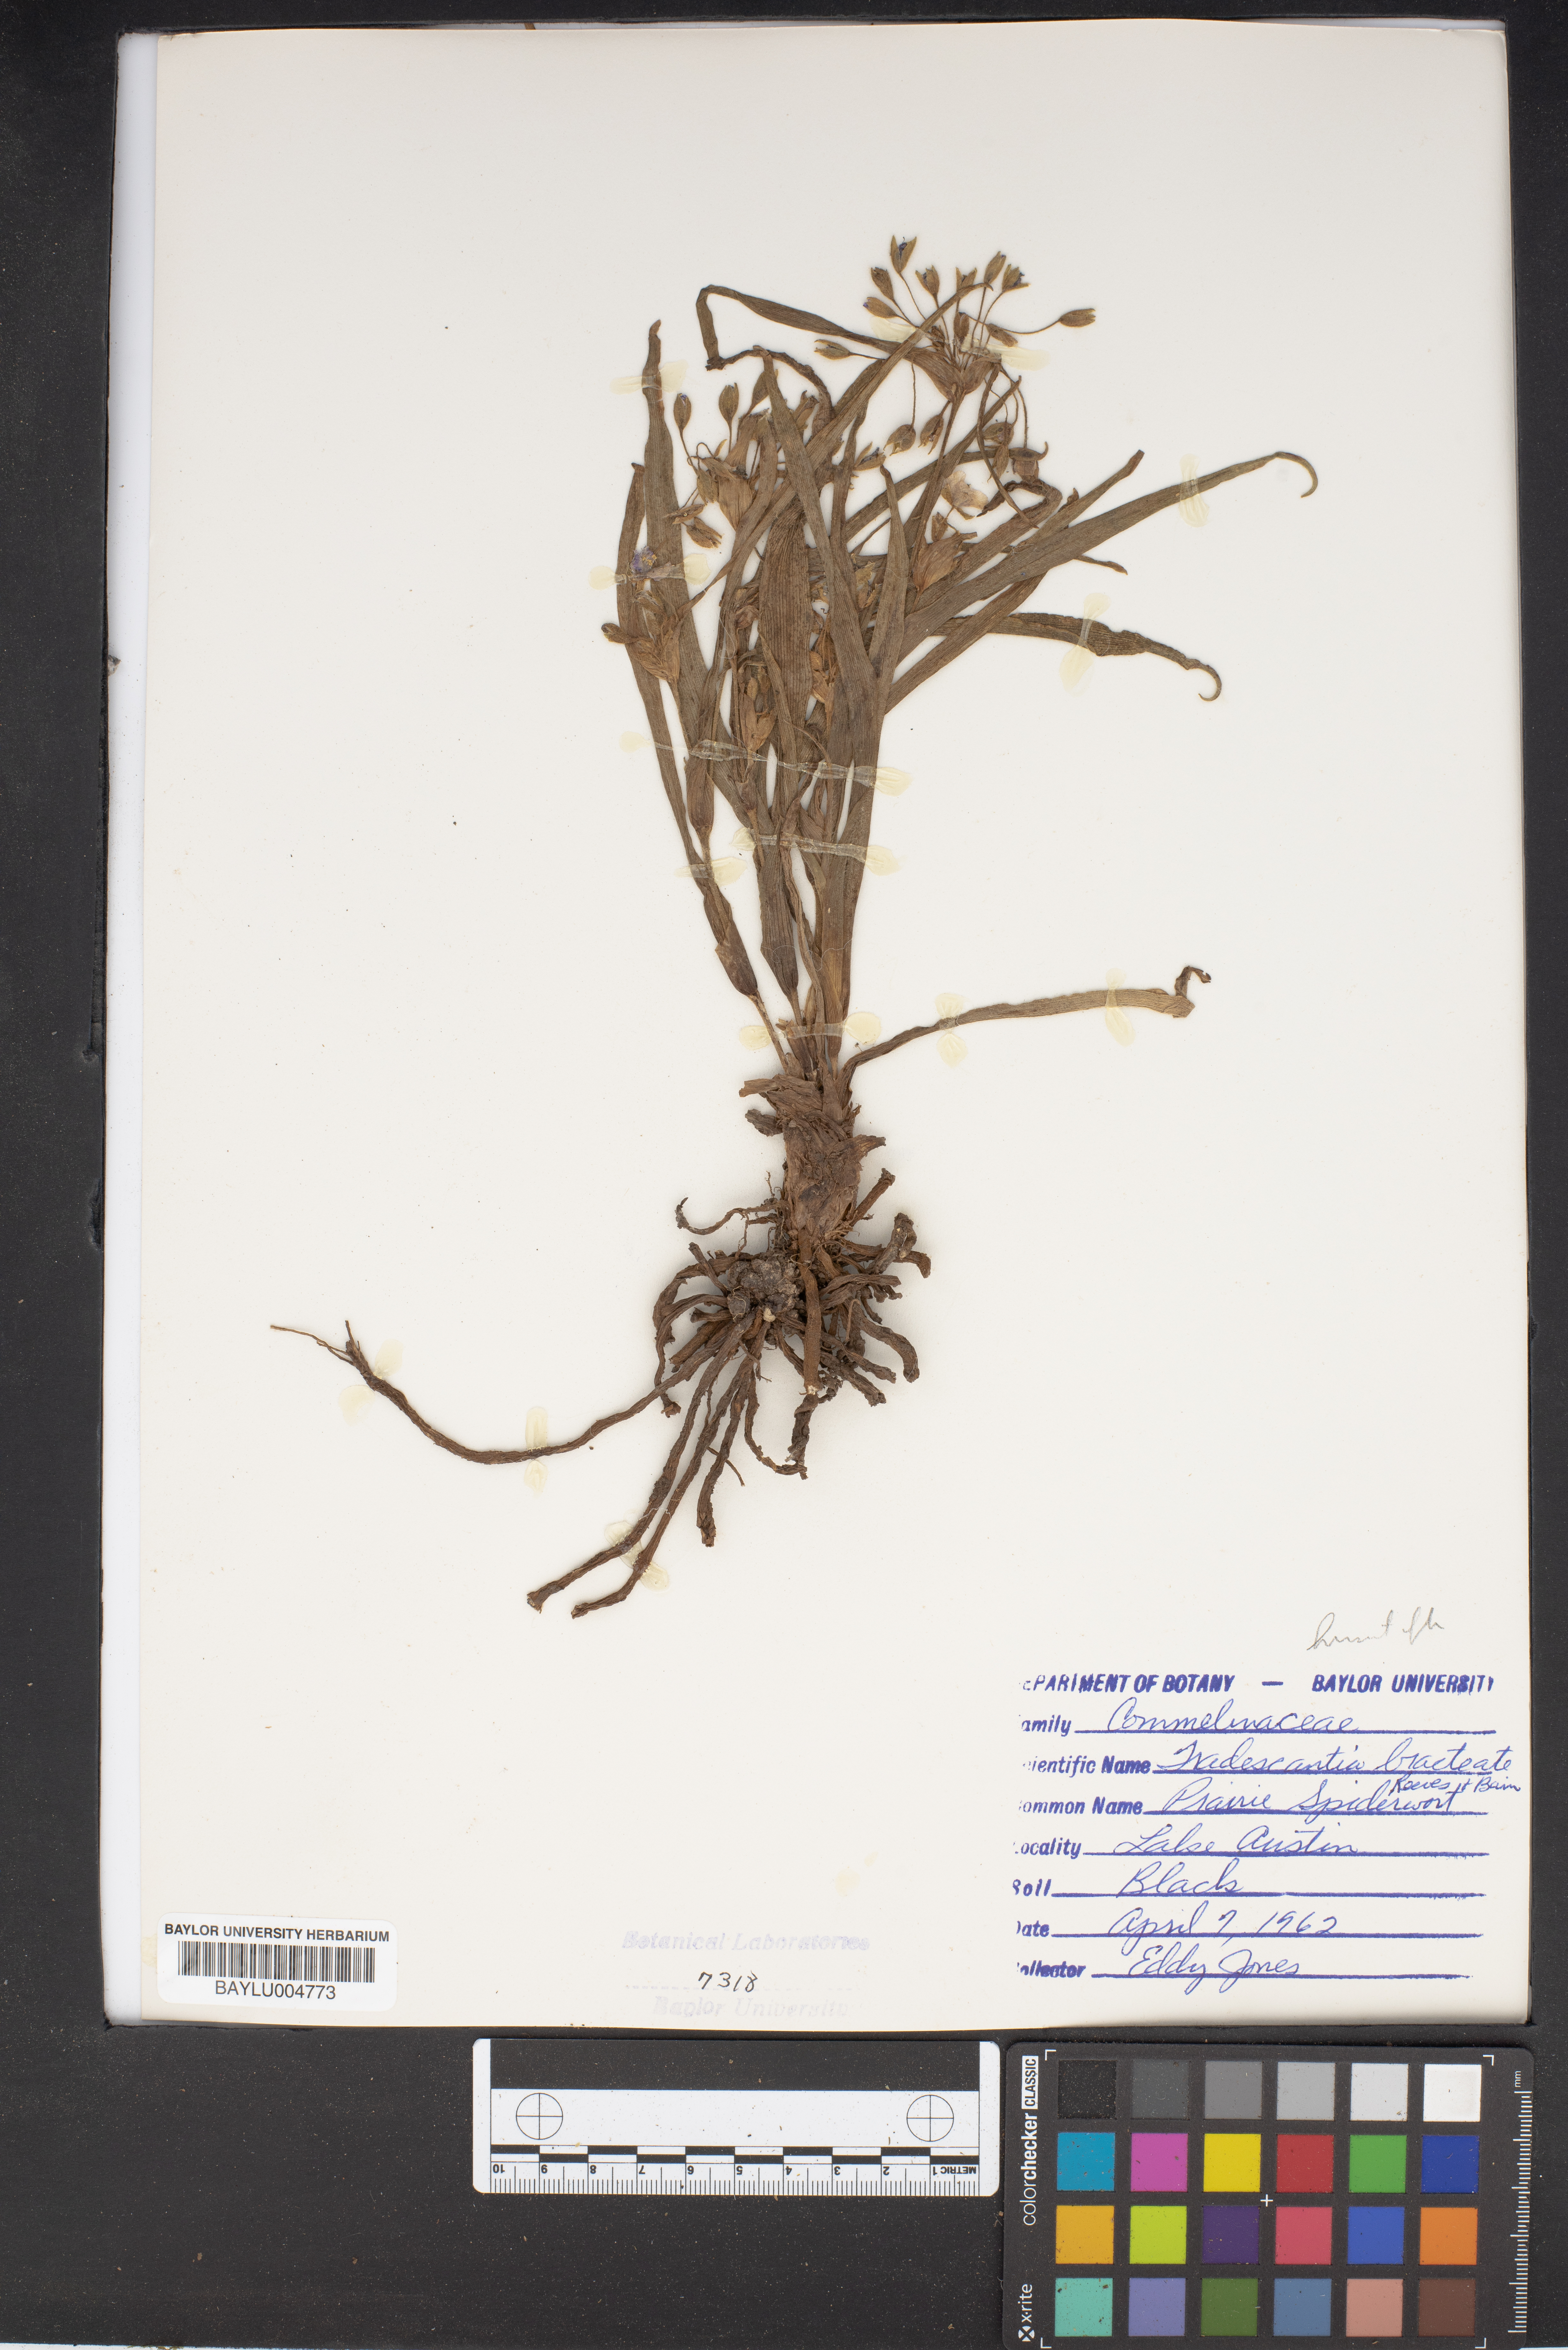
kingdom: Plantae
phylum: Tracheophyta
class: Liliopsida
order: Commelinales
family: Commelinaceae
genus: Tradescantia
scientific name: Tradescantia bracteata
